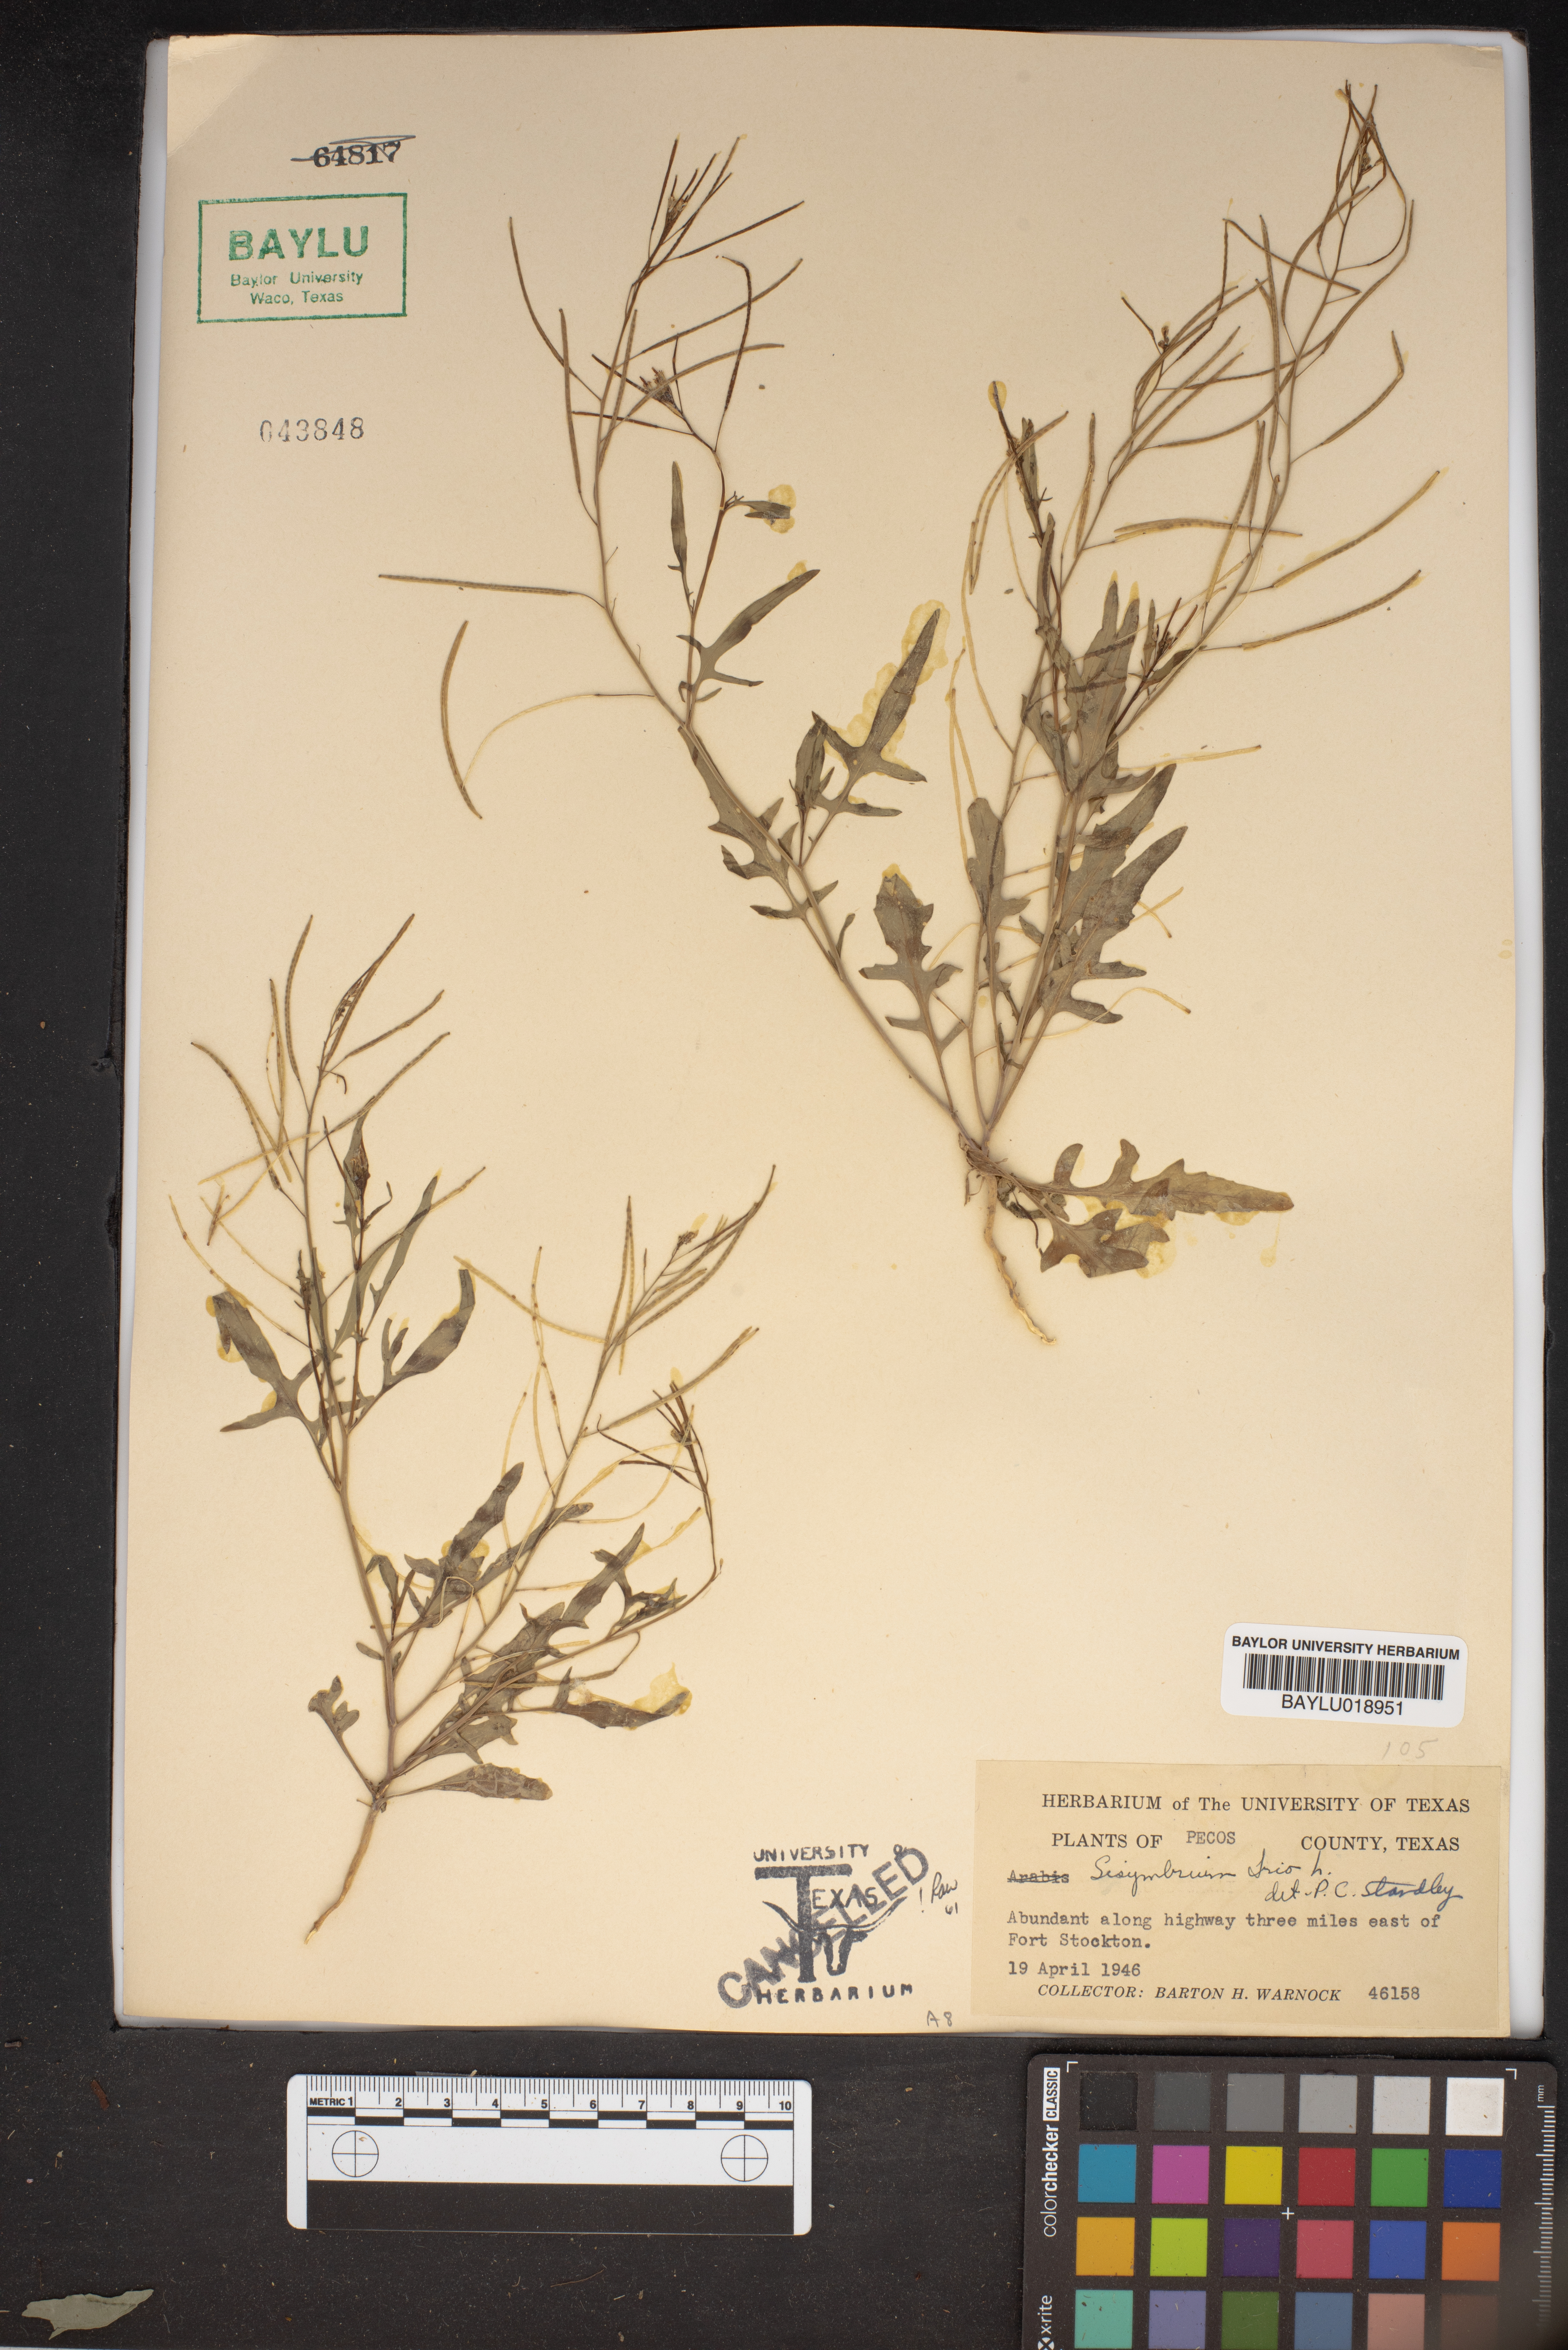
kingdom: Plantae
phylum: Tracheophyta
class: Magnoliopsida
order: Brassicales
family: Brassicaceae
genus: Sisymbrium
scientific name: Sisymbrium irio
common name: London rocket
